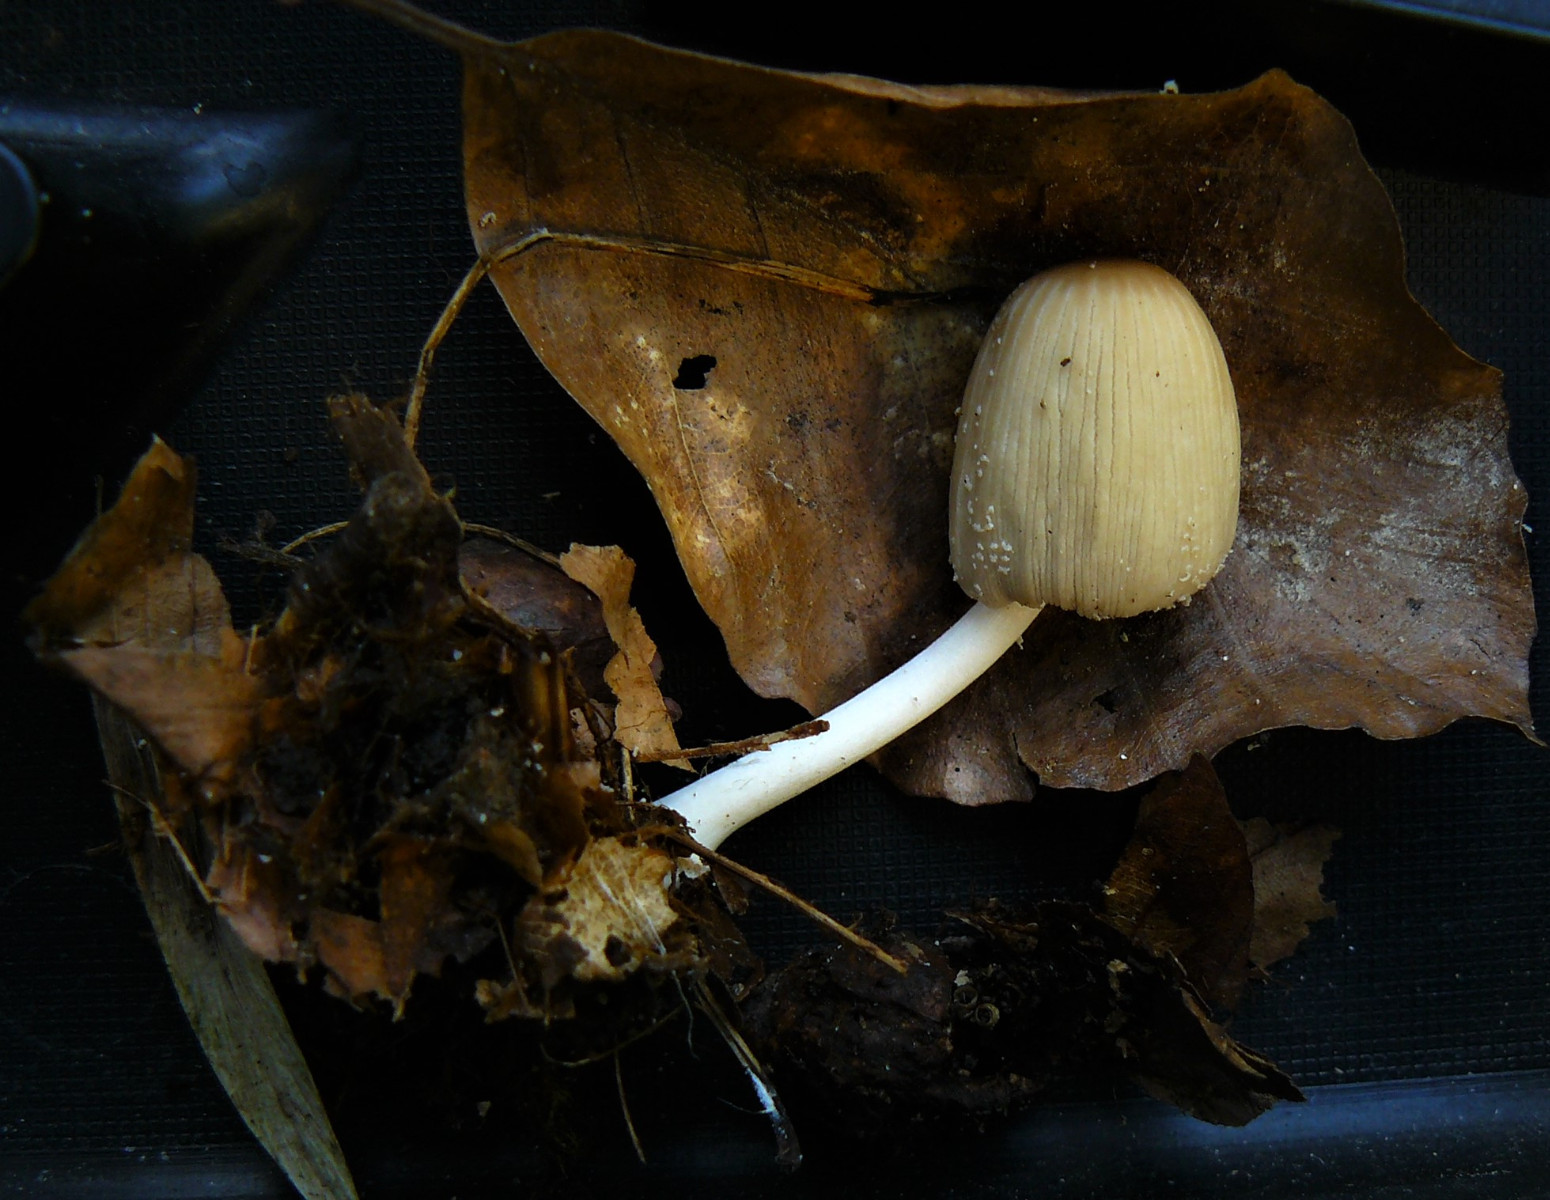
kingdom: Fungi
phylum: Basidiomycota
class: Agaricomycetes
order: Agaricales
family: Psathyrellaceae
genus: Coprinellus
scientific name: Coprinellus
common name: blækhat
